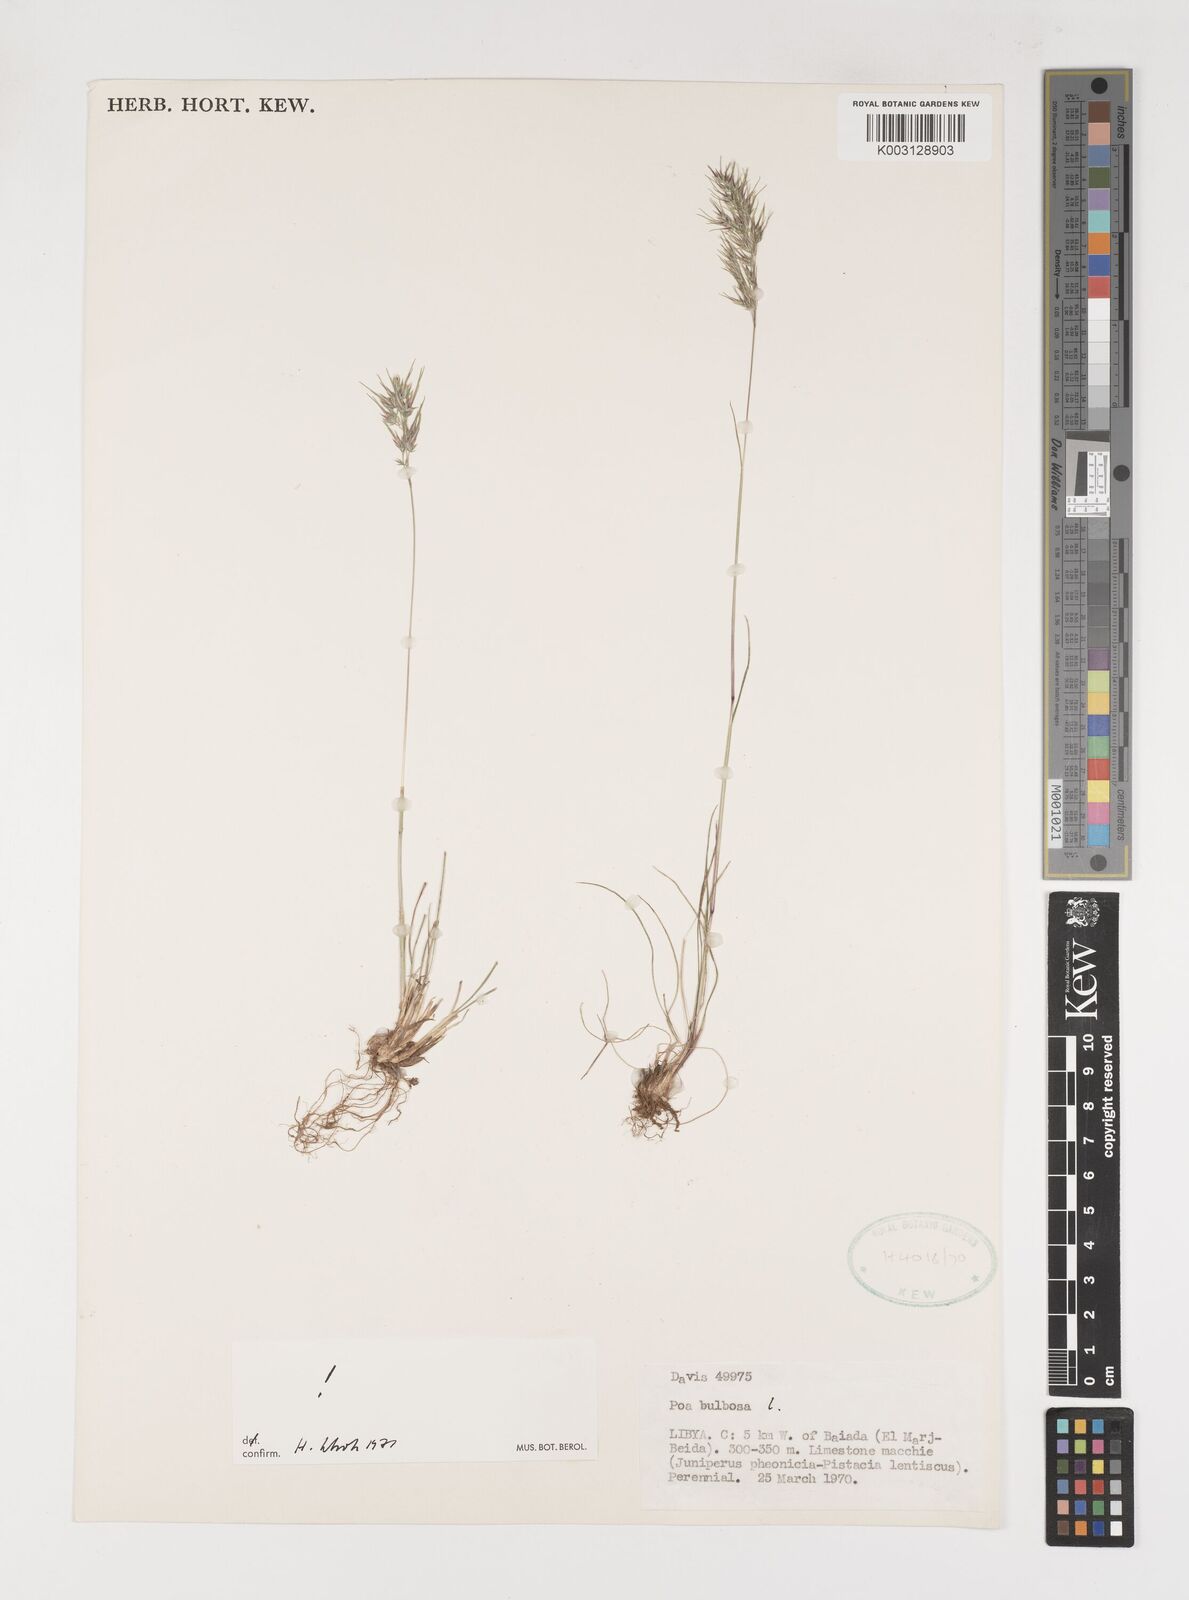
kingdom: Plantae
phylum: Tracheophyta
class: Liliopsida
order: Poales
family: Poaceae
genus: Poa
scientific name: Poa bulbosa
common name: Bulbous bluegrass
